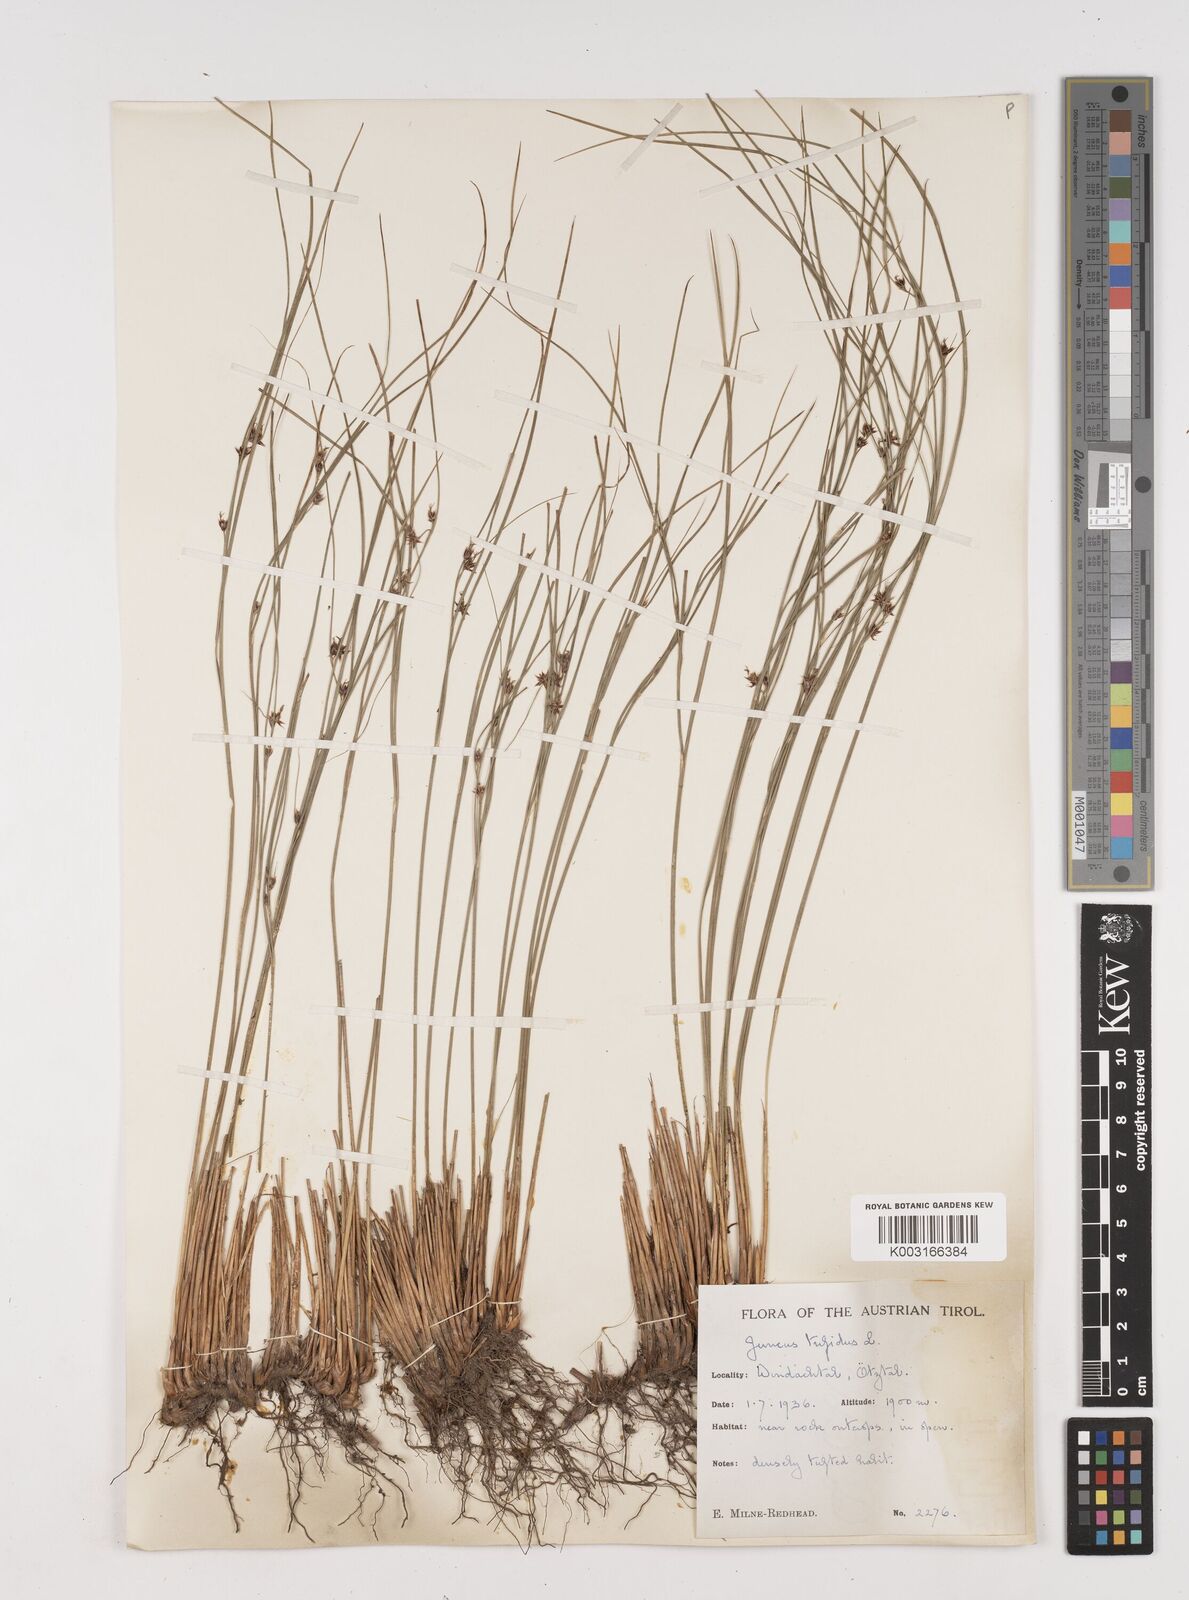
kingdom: Plantae
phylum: Tracheophyta
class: Liliopsida
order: Poales
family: Juncaceae
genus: Oreojuncus
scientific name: Oreojuncus trifidus
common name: Highland rush
